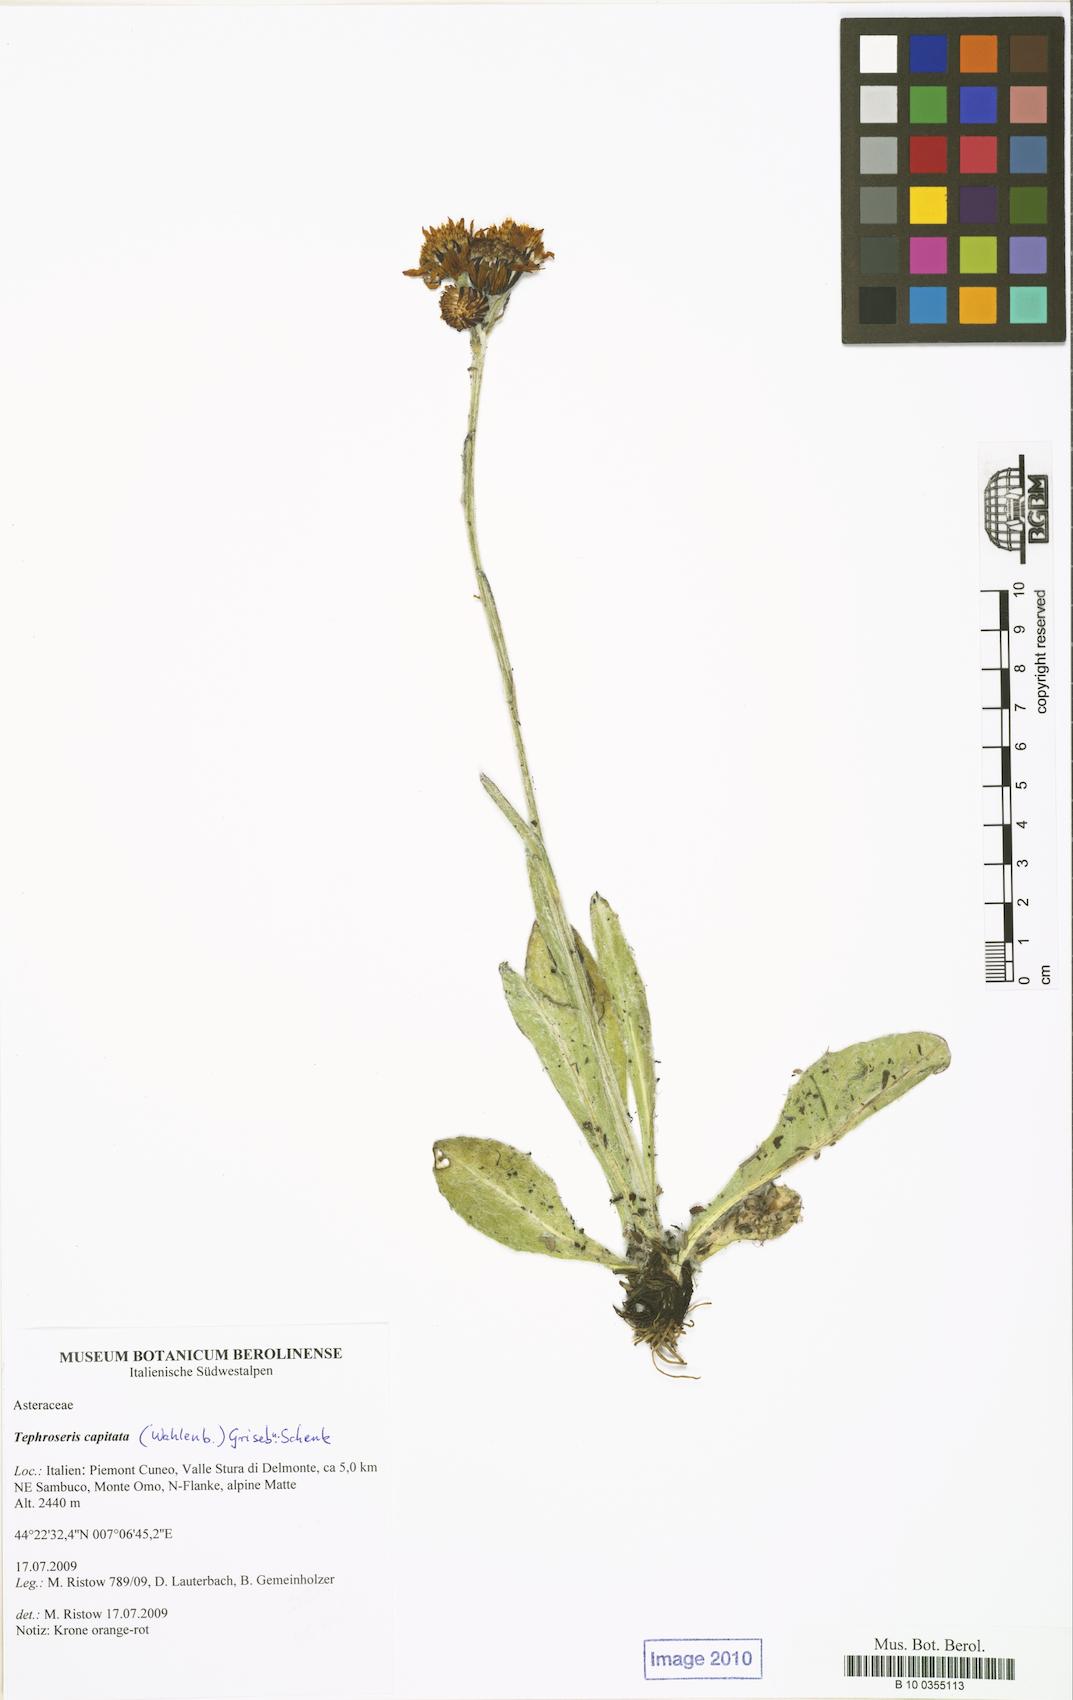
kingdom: Plantae
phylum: Tracheophyta
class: Magnoliopsida
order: Asterales
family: Asteraceae
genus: Tephroseris
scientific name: Tephroseris integrifolia
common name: Field fleawort
